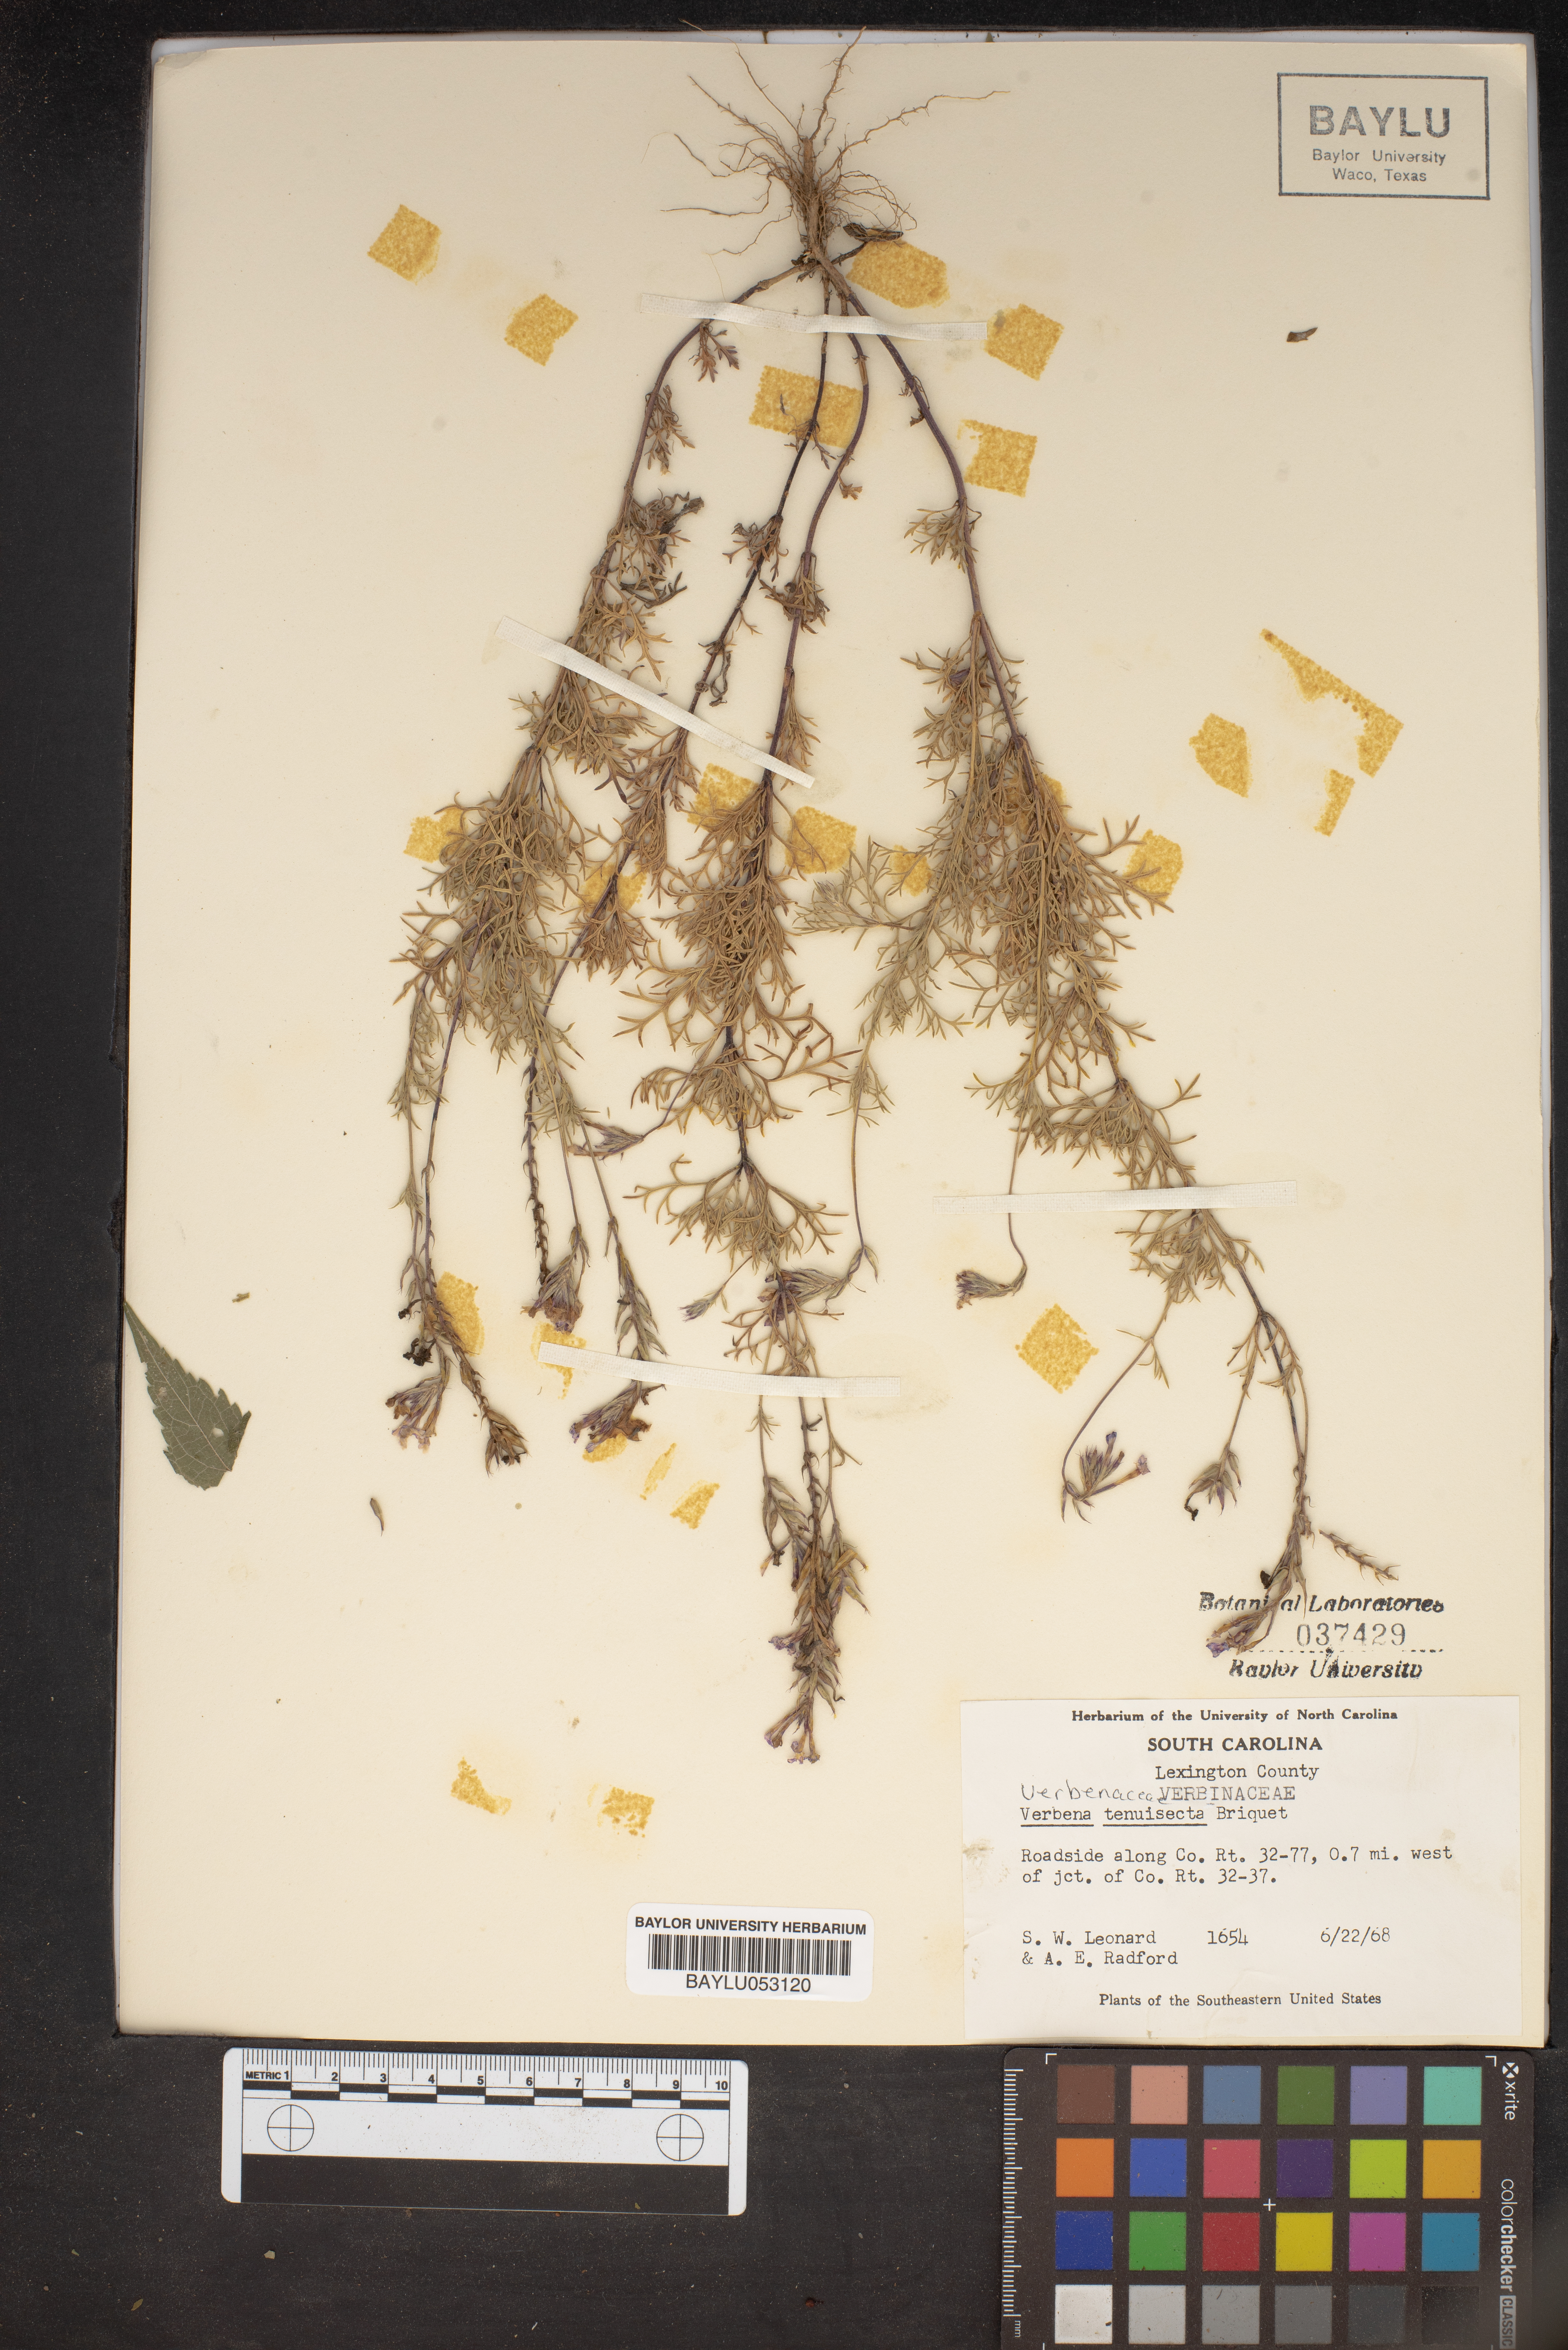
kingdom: Plantae
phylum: Tracheophyta
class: Magnoliopsida
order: Lamiales
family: Verbenaceae
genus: Verbena
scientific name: Verbena aristigera
